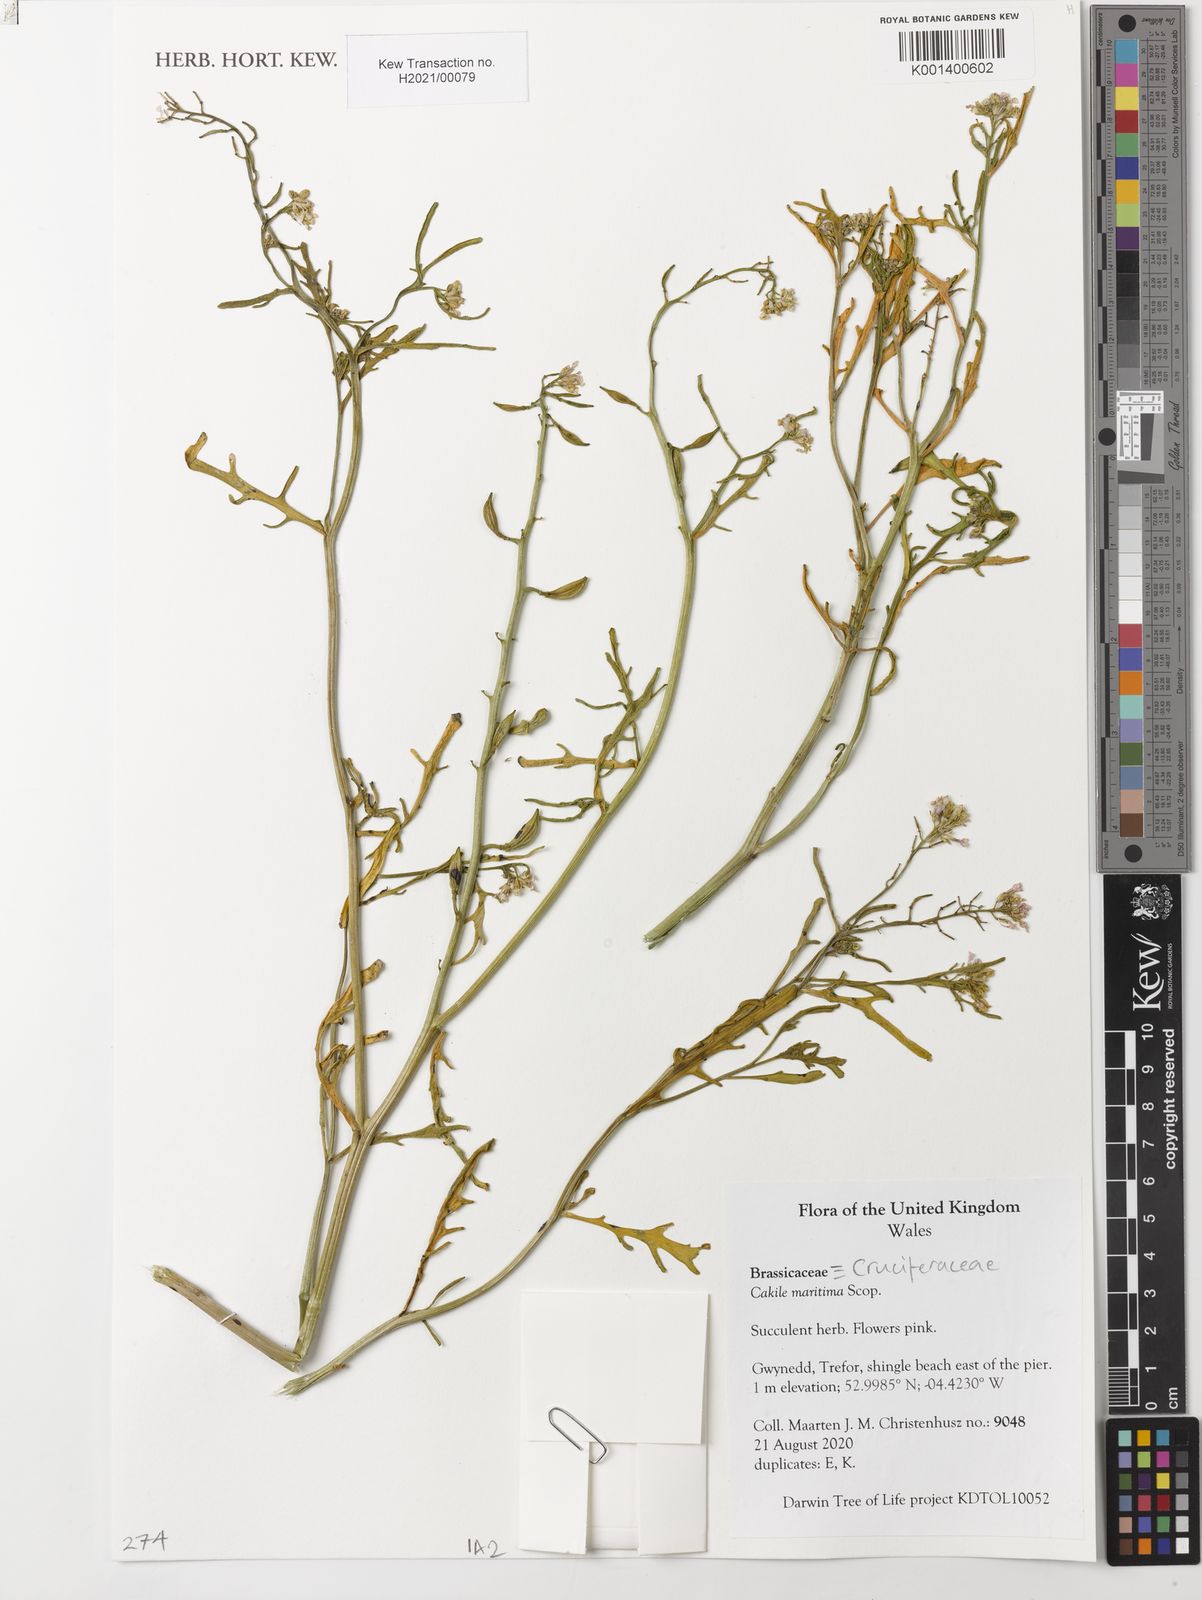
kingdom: Plantae
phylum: Tracheophyta
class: Magnoliopsida
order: Brassicales
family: Brassicaceae
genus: Cakile
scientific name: Cakile maritima
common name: Sea rocket
